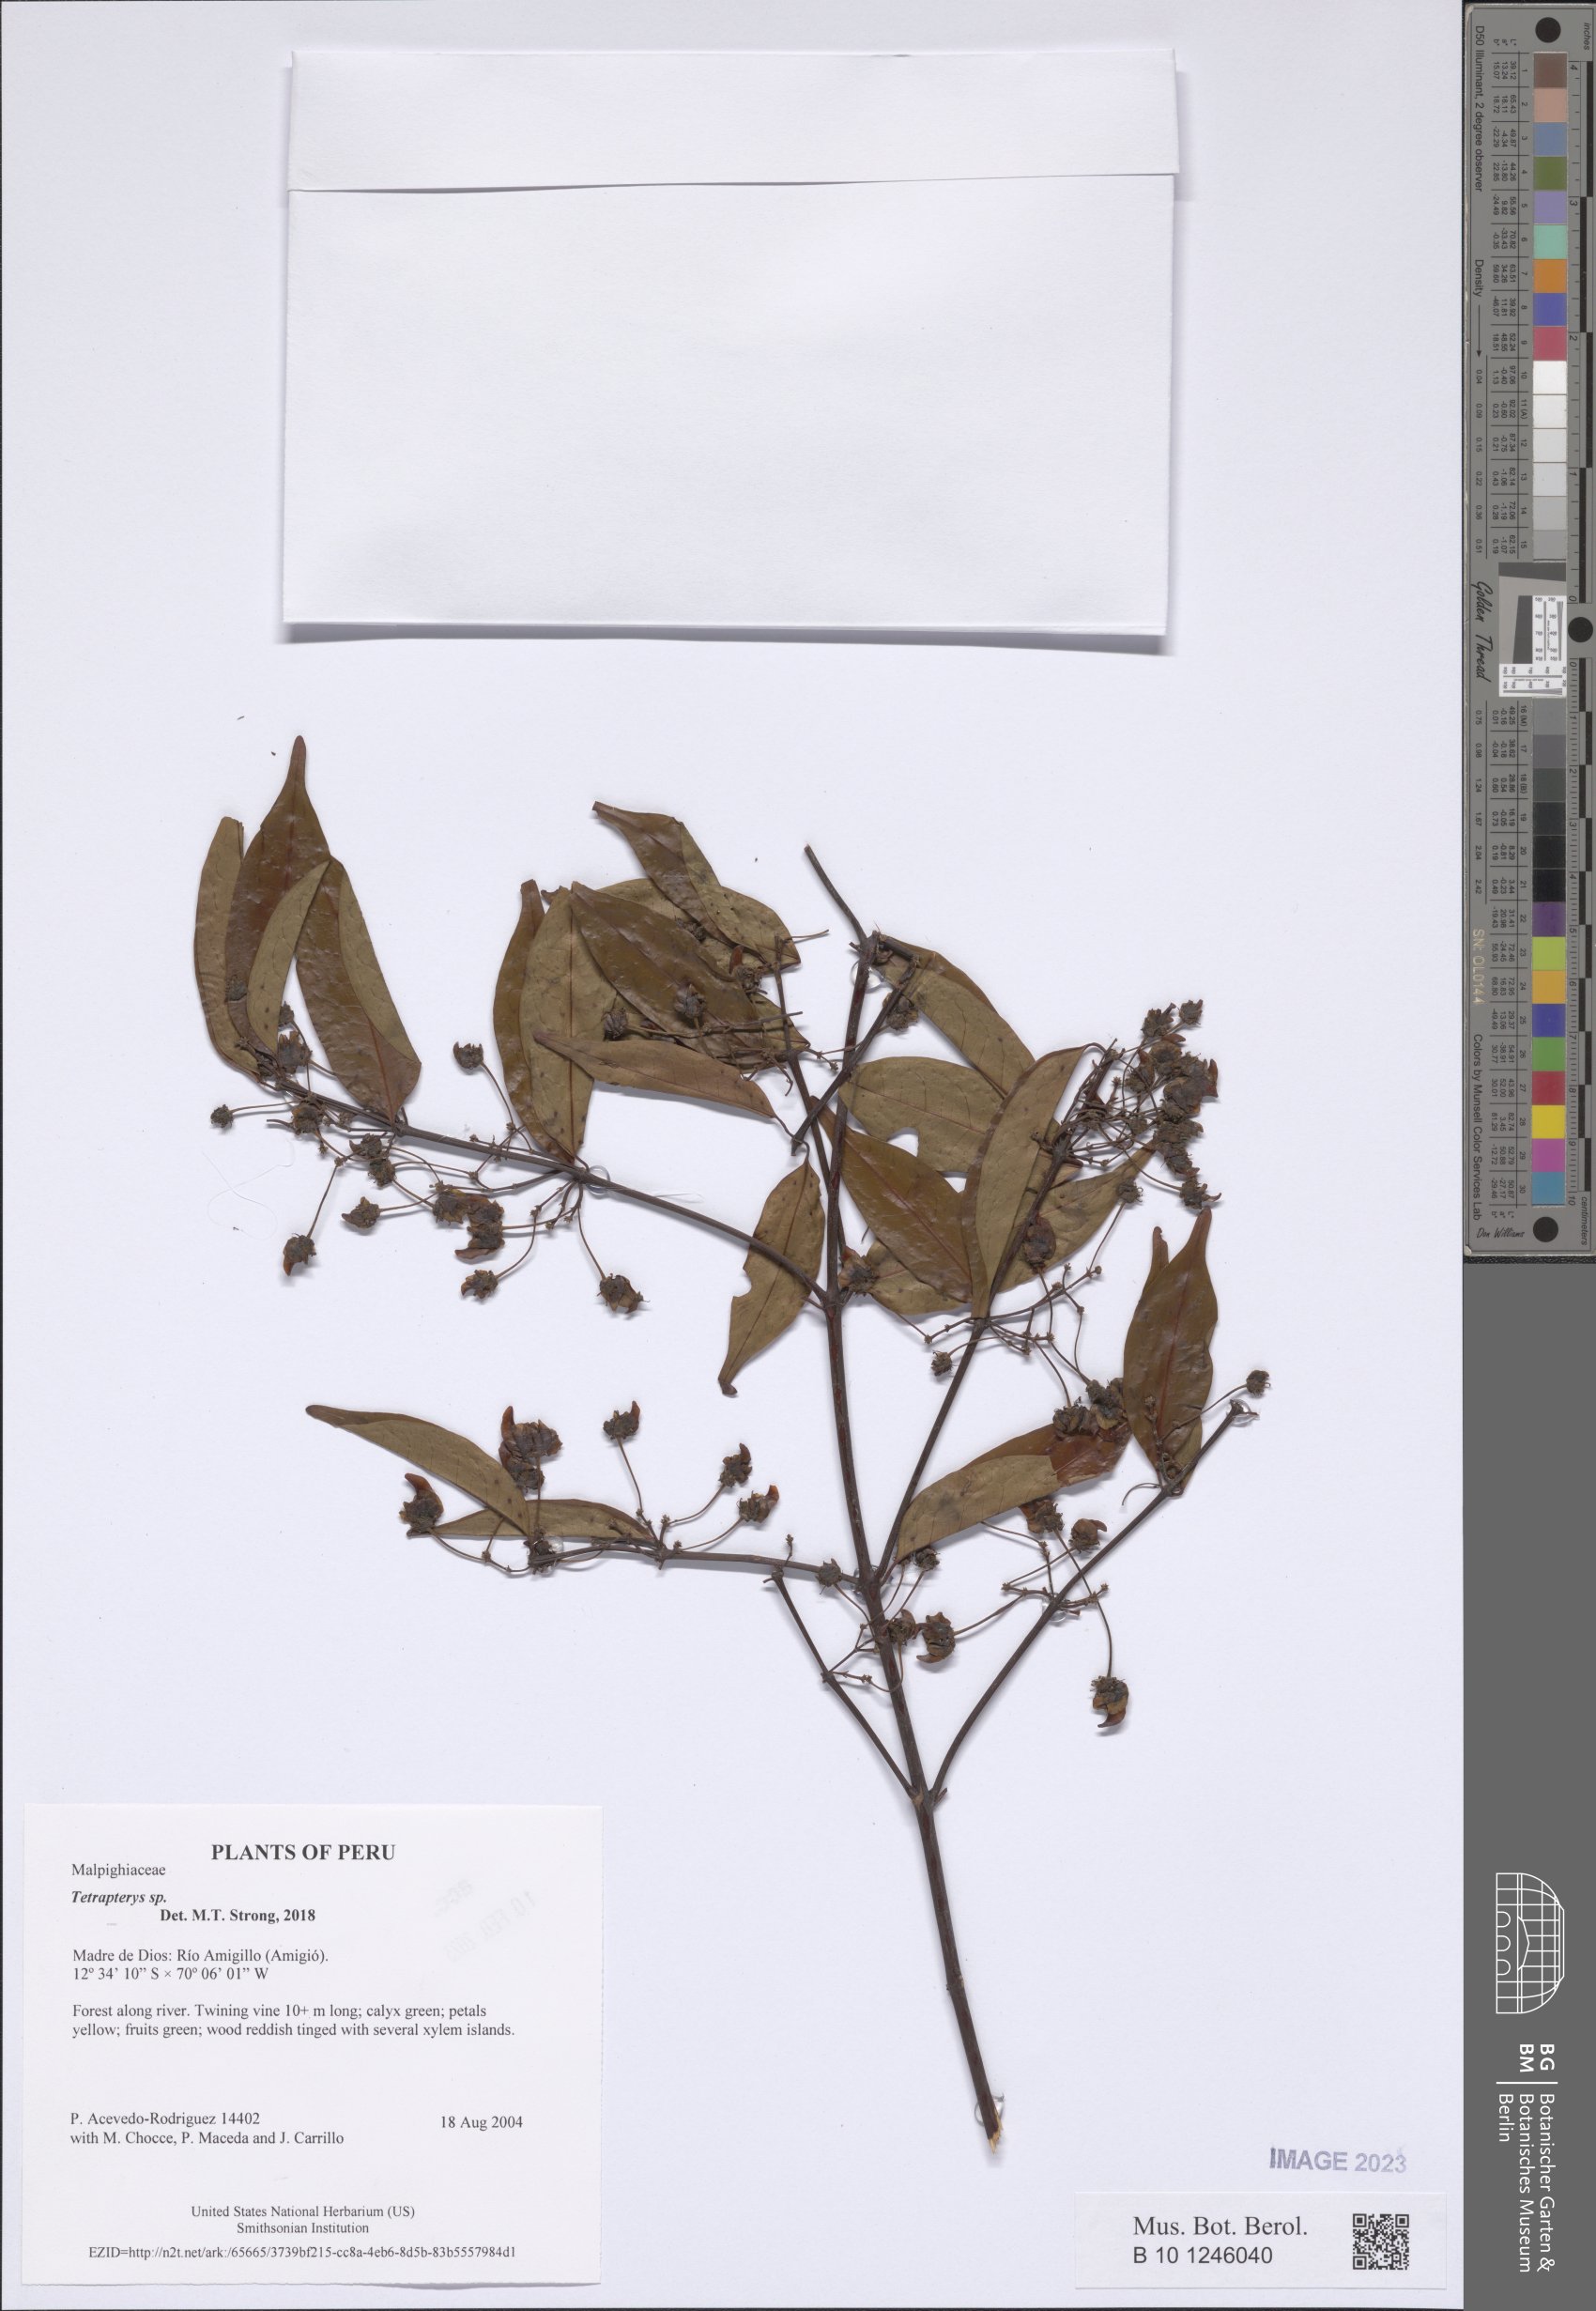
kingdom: Plantae
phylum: Tracheophyta
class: Magnoliopsida
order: Malpighiales
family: Malpighiaceae
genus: Tetrapterys
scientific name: Tetrapterys
